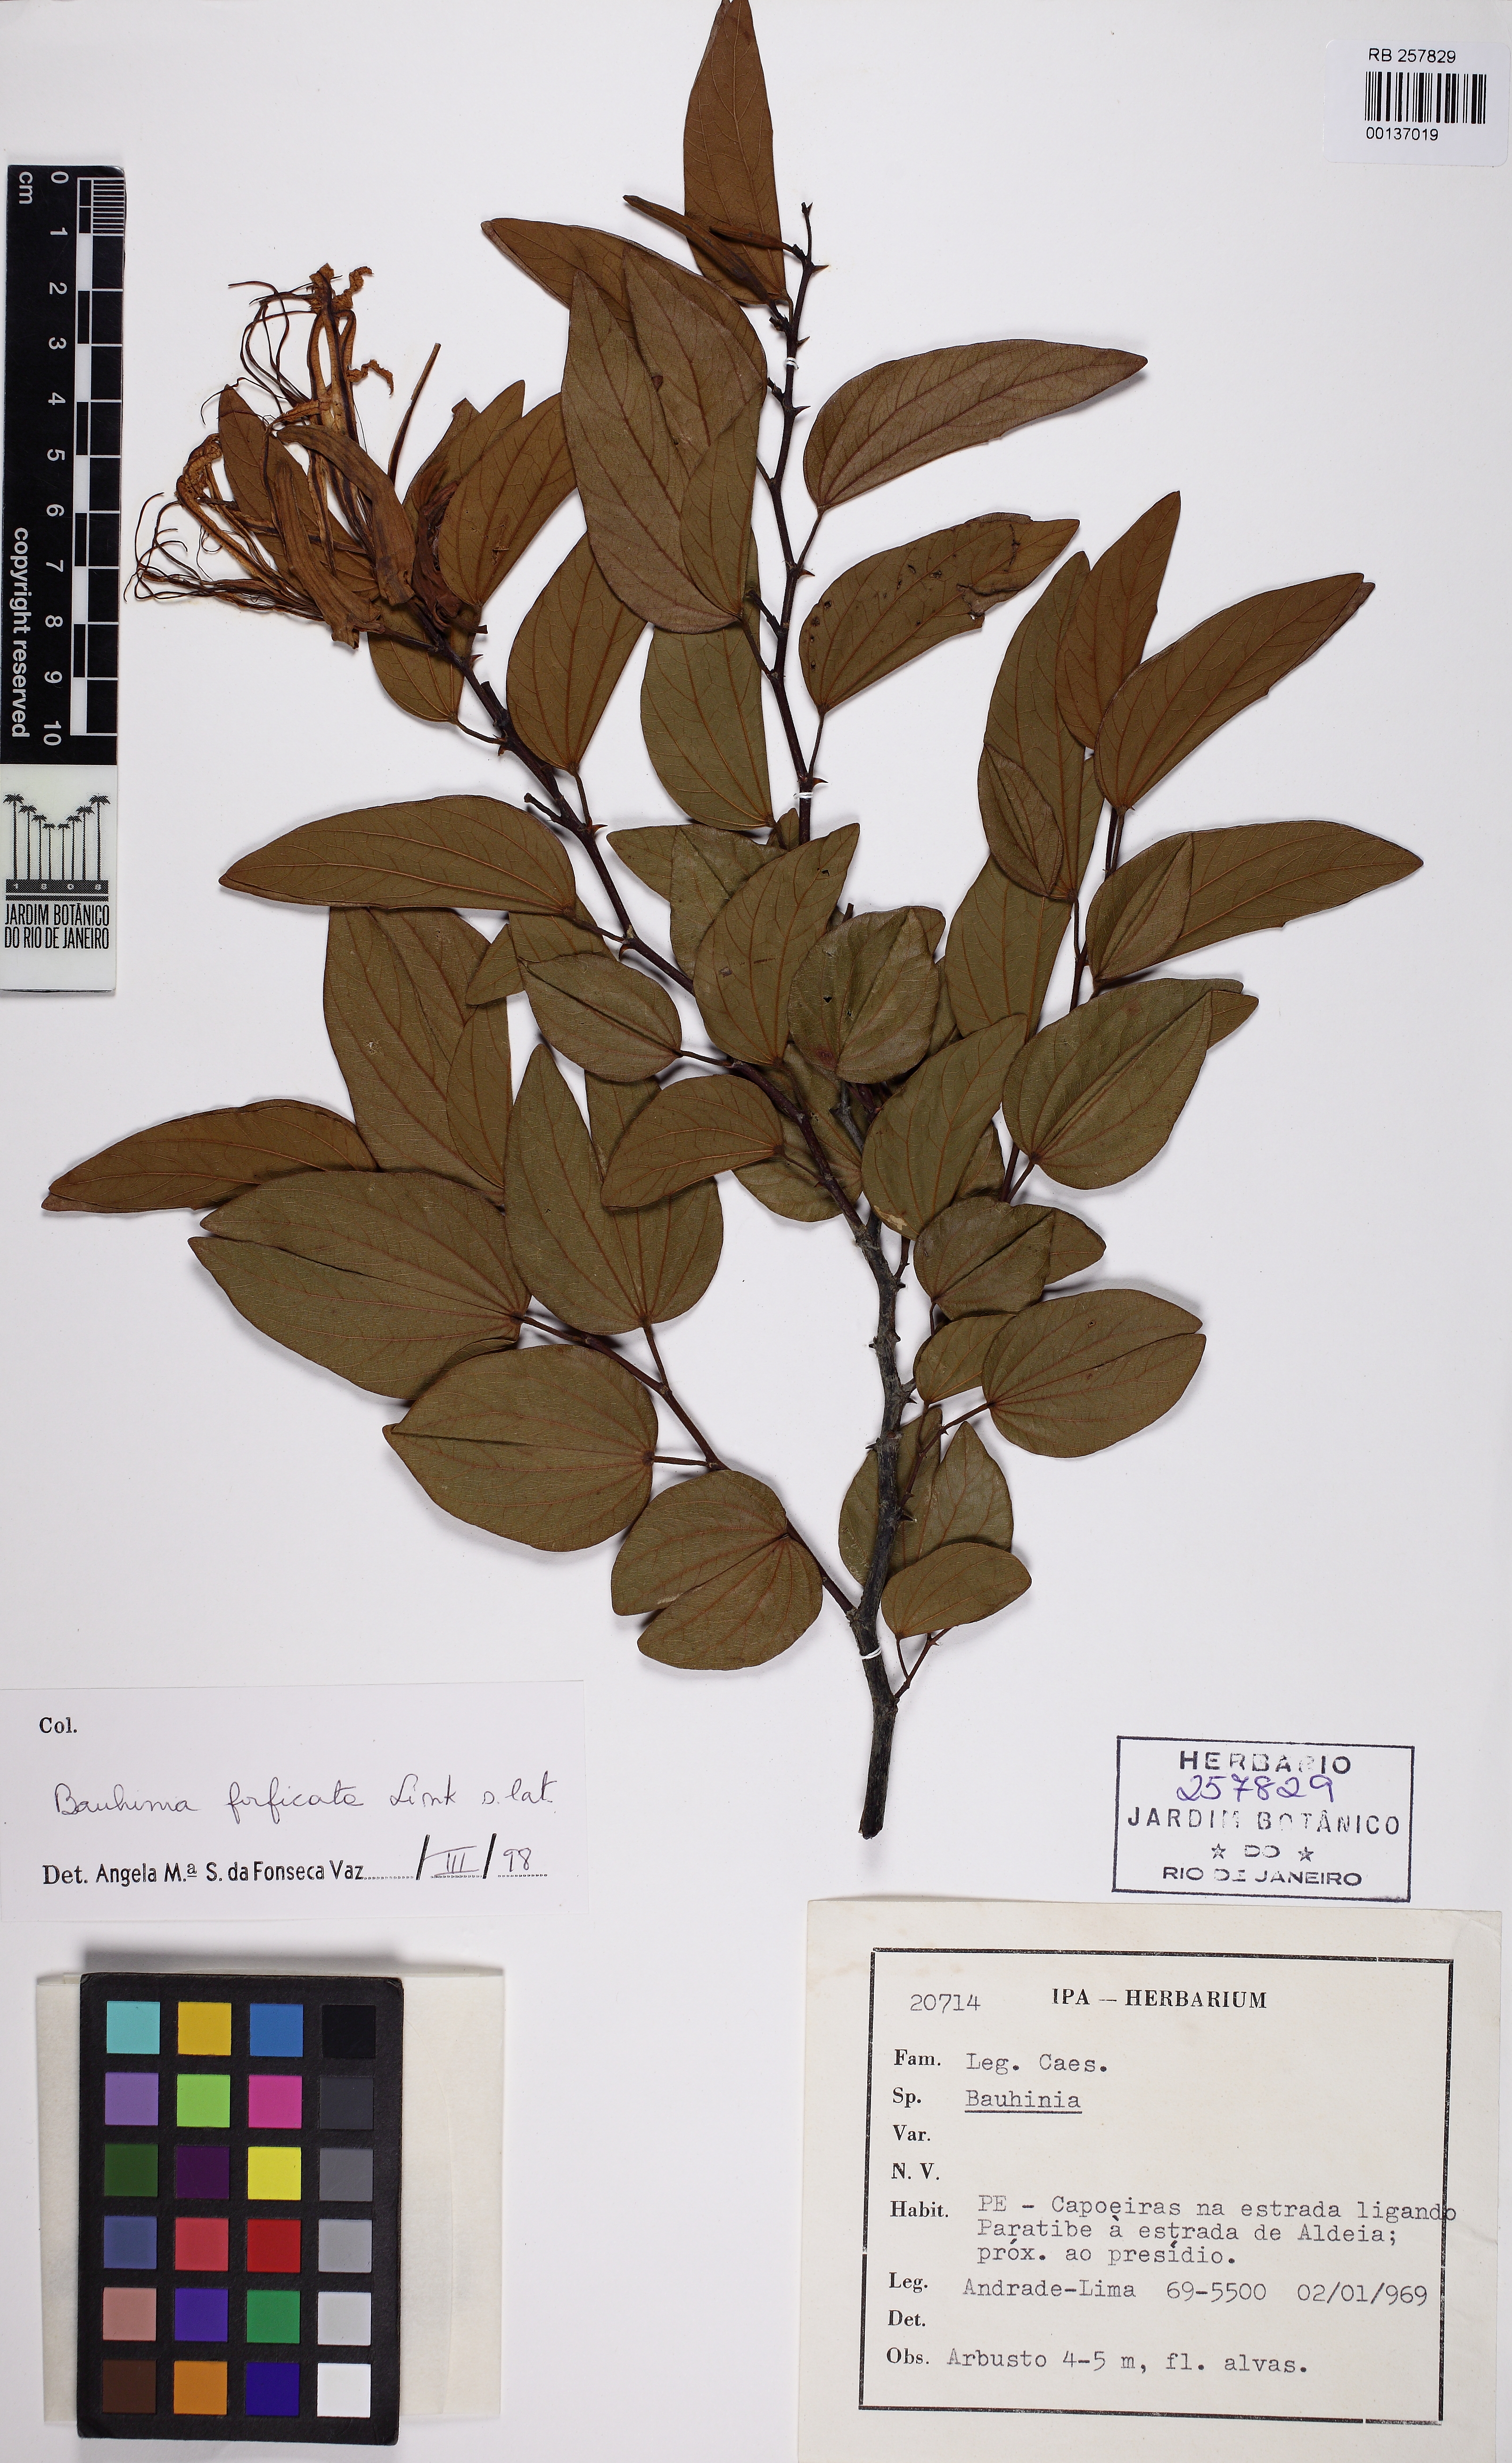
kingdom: Plantae
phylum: Tracheophyta
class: Magnoliopsida
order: Fabales
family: Fabaceae
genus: Bauhinia
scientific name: Bauhinia forficata
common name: Orchid tree
